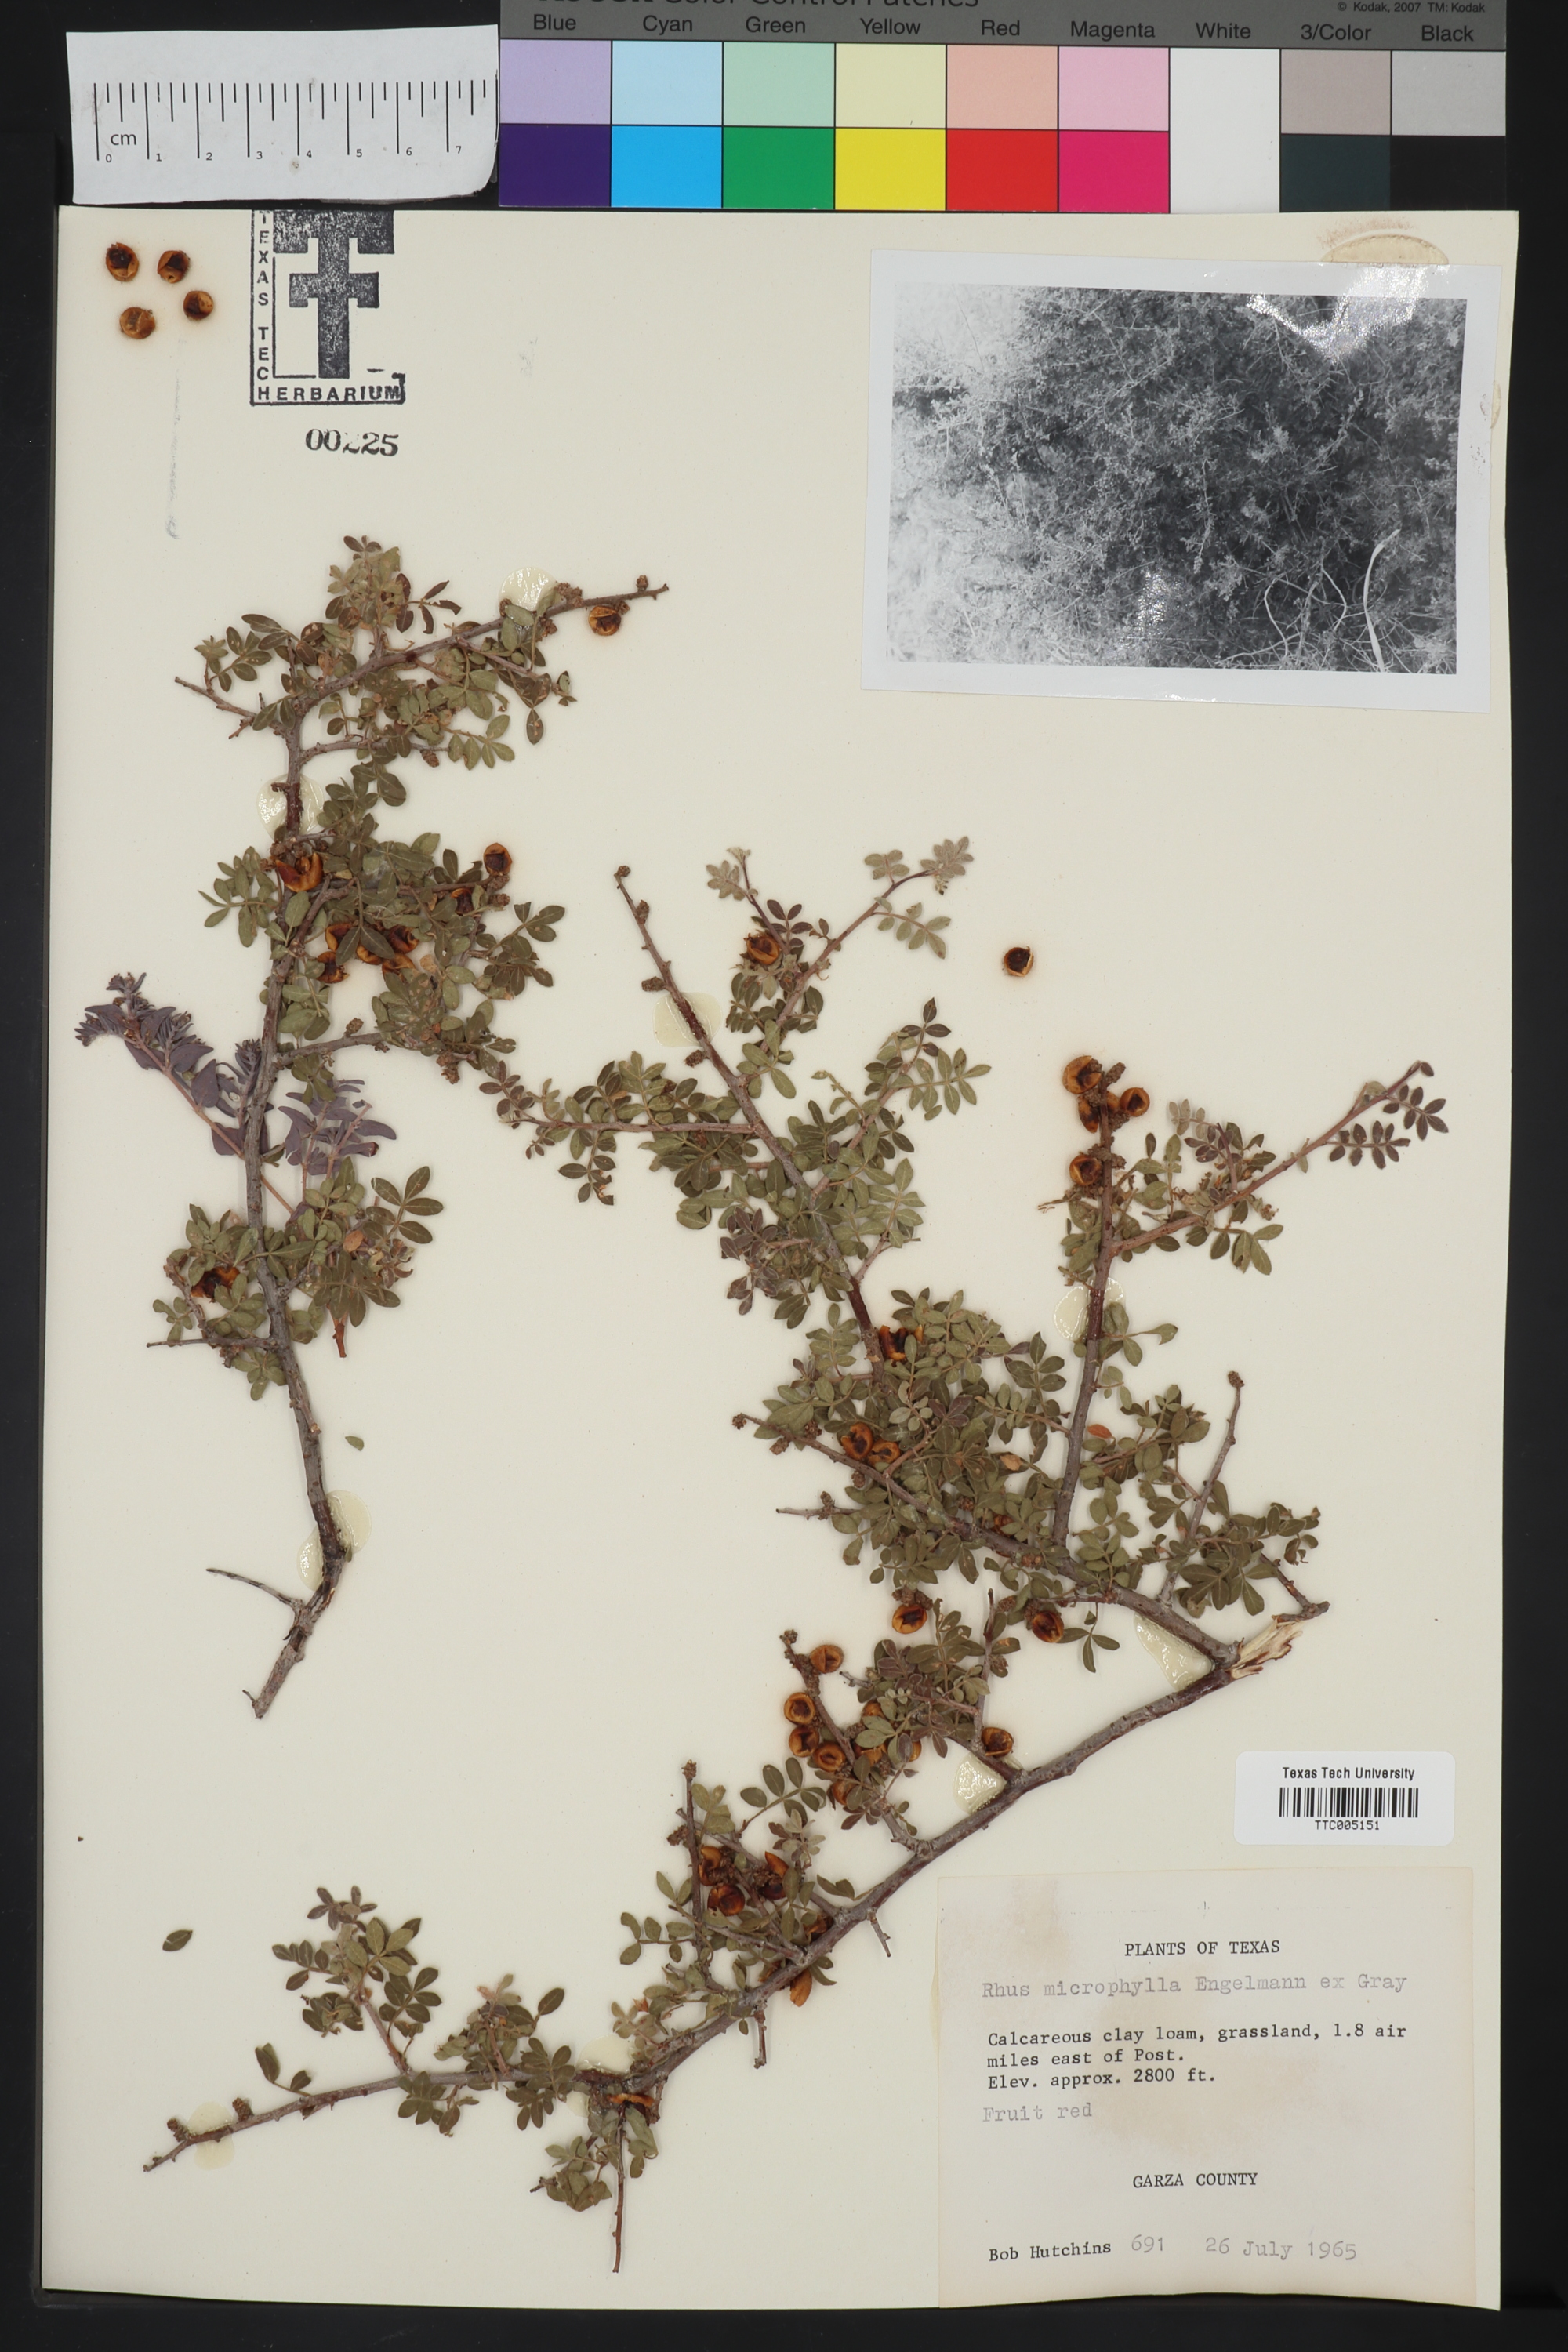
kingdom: Plantae
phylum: Tracheophyta
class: Magnoliopsida
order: Sapindales
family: Anacardiaceae
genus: Rhus
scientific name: Rhus microphylla
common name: Desert sumac
